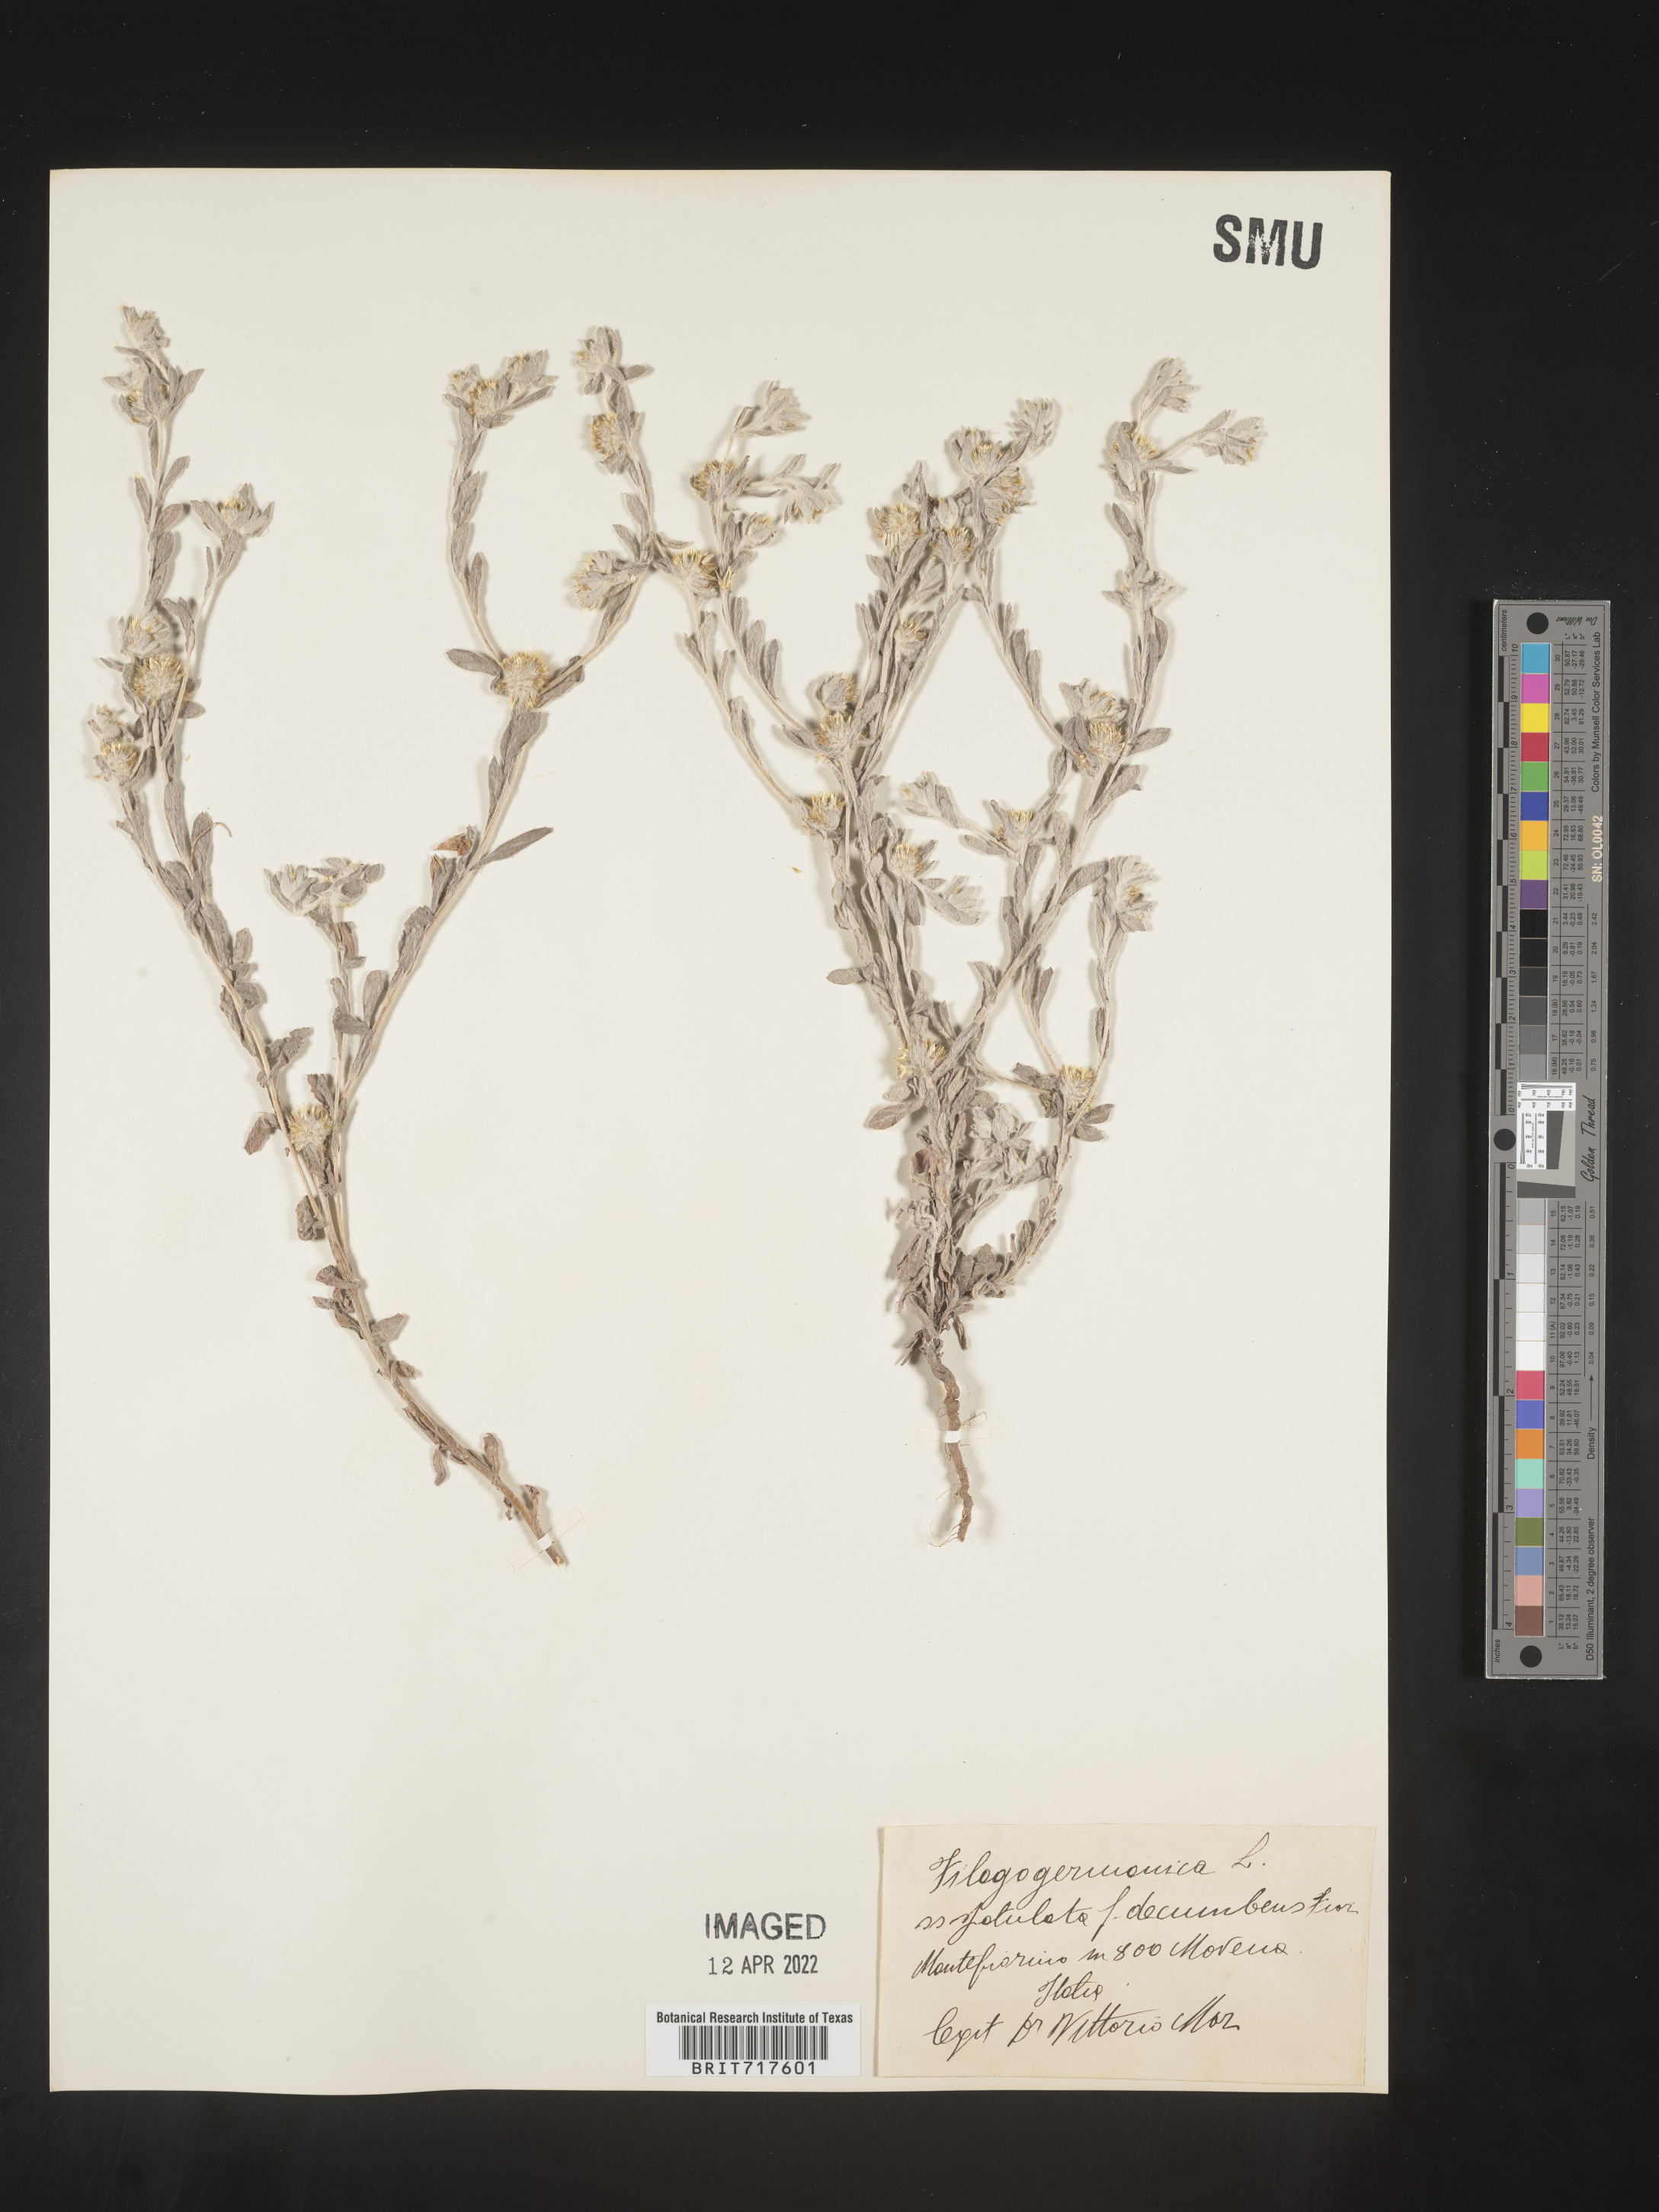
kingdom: Plantae
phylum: Tracheophyta
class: Magnoliopsida
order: Asterales
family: Asteraceae
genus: Filago
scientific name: Filago
